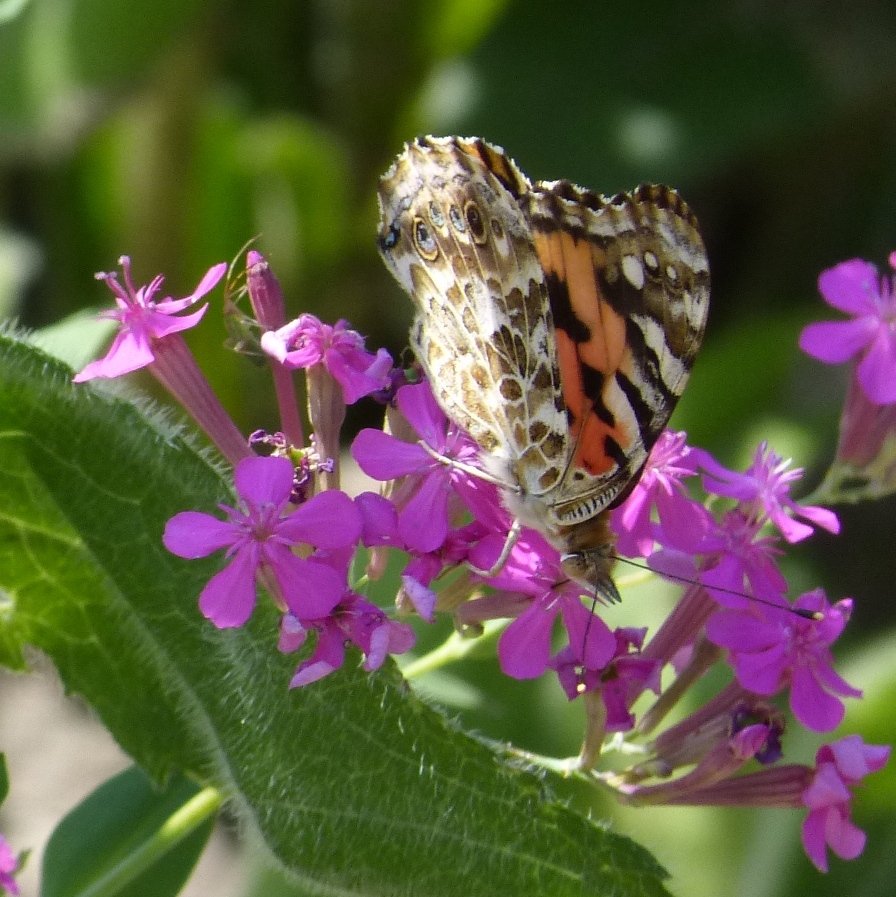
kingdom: Animalia
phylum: Arthropoda
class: Insecta
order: Lepidoptera
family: Nymphalidae
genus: Vanessa
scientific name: Vanessa cardui
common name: Painted Lady
